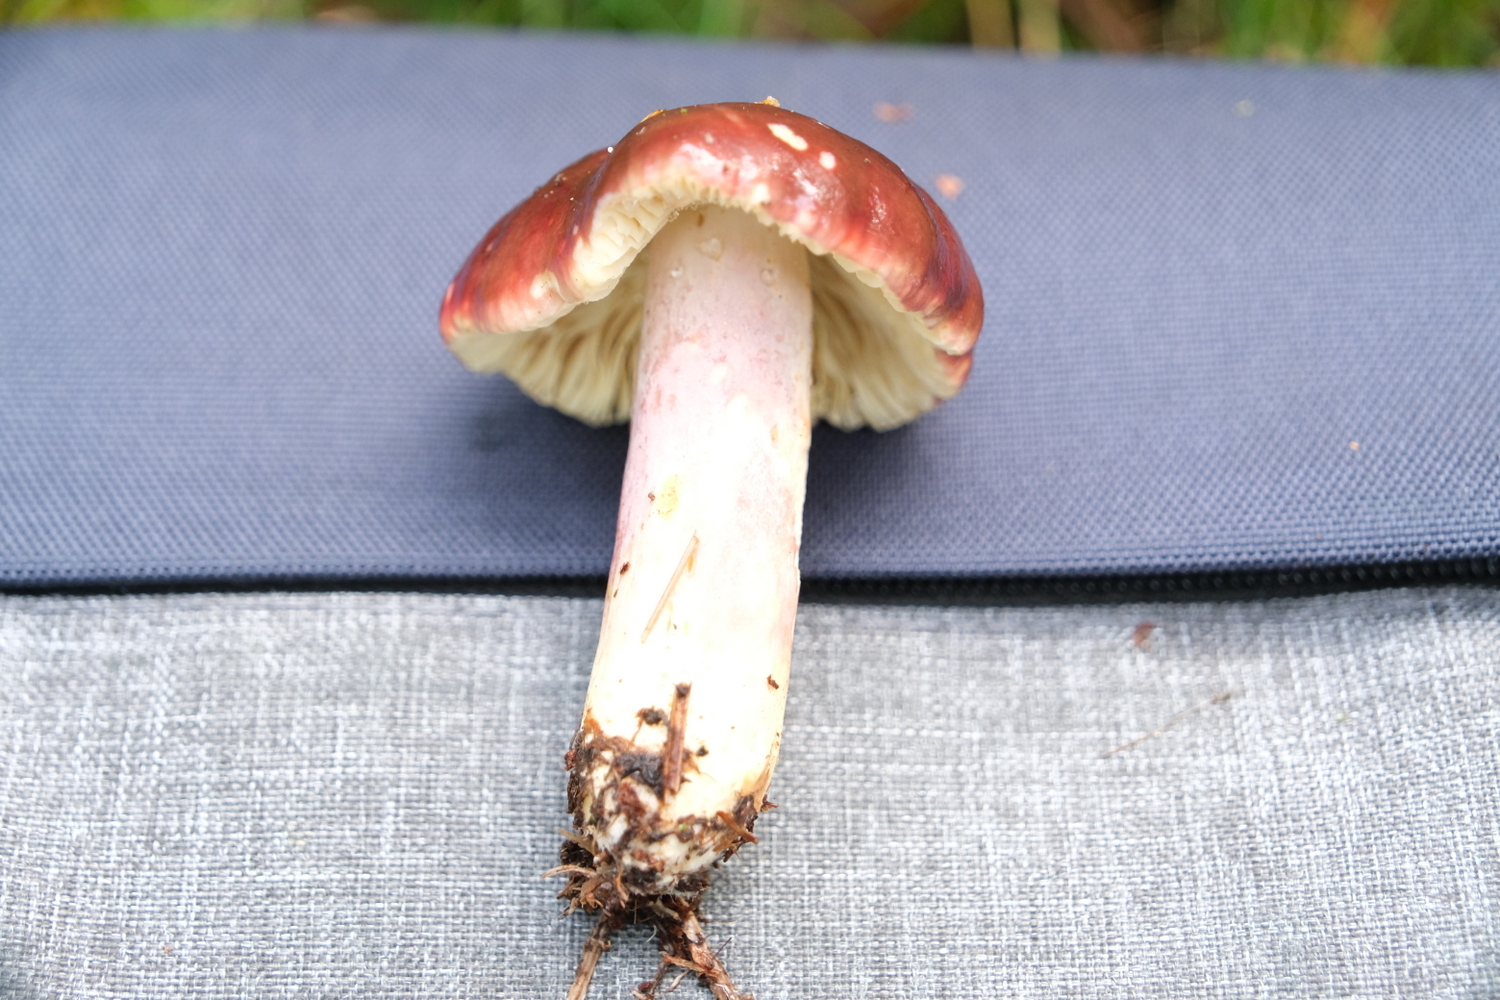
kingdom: Fungi
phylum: Basidiomycota
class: Agaricomycetes
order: Russulales
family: Russulaceae
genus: Russula
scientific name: Russula sardonia
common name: citronbladet skørhat
